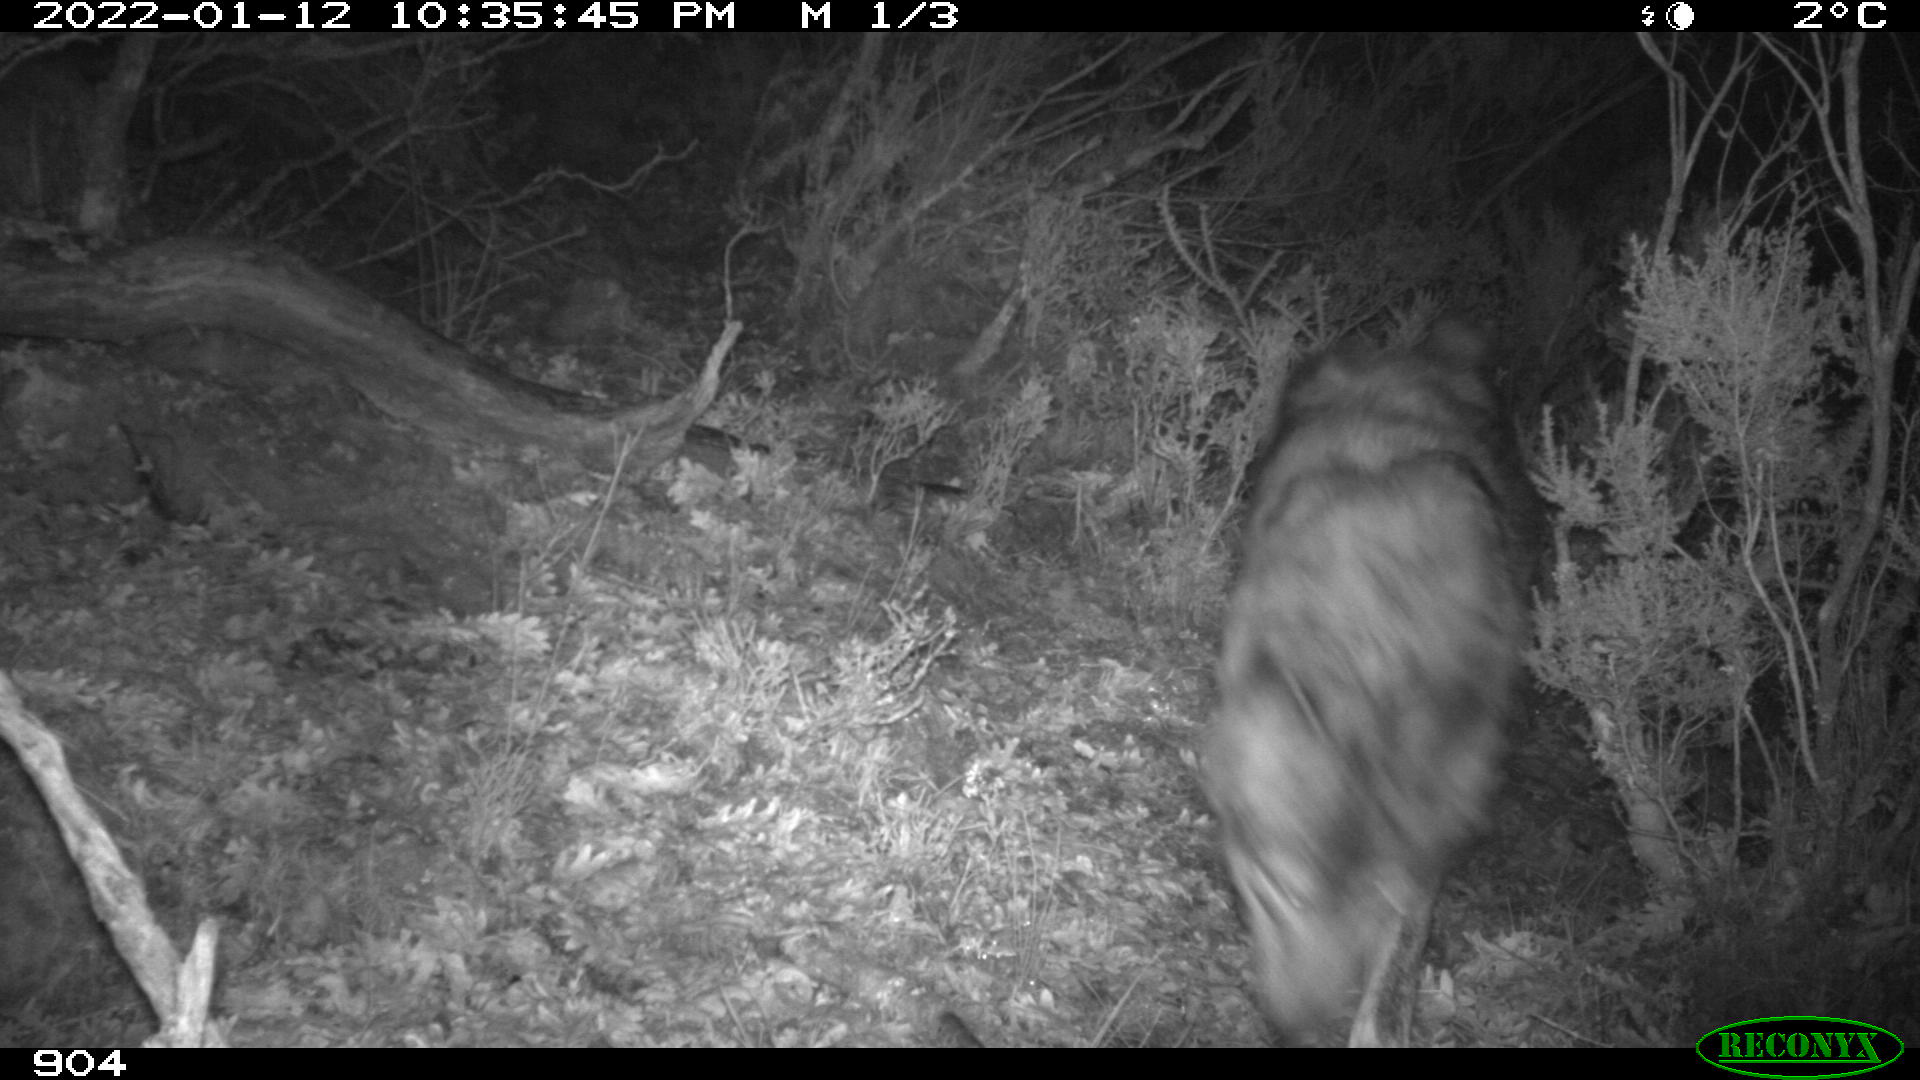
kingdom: Animalia
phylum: Chordata
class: Mammalia
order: Carnivora
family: Canidae
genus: Canis
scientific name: Canis lupus
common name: Gray wolf
